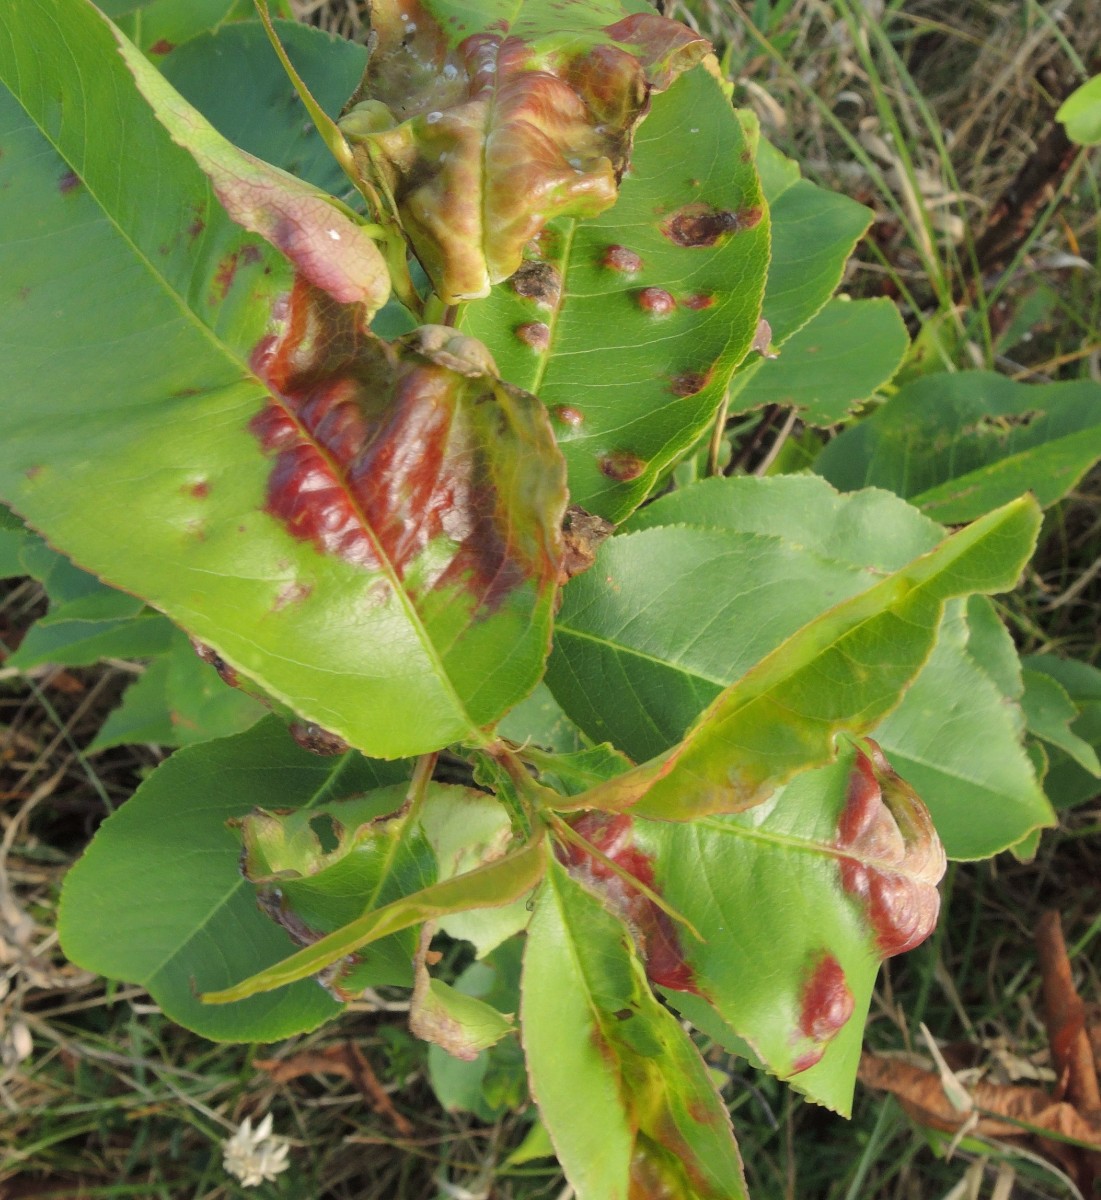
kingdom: Fungi
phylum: Ascomycota
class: Taphrinomycetes
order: Taphrinales
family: Taphrinaceae
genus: Taphrina
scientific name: Taphrina farlowii
